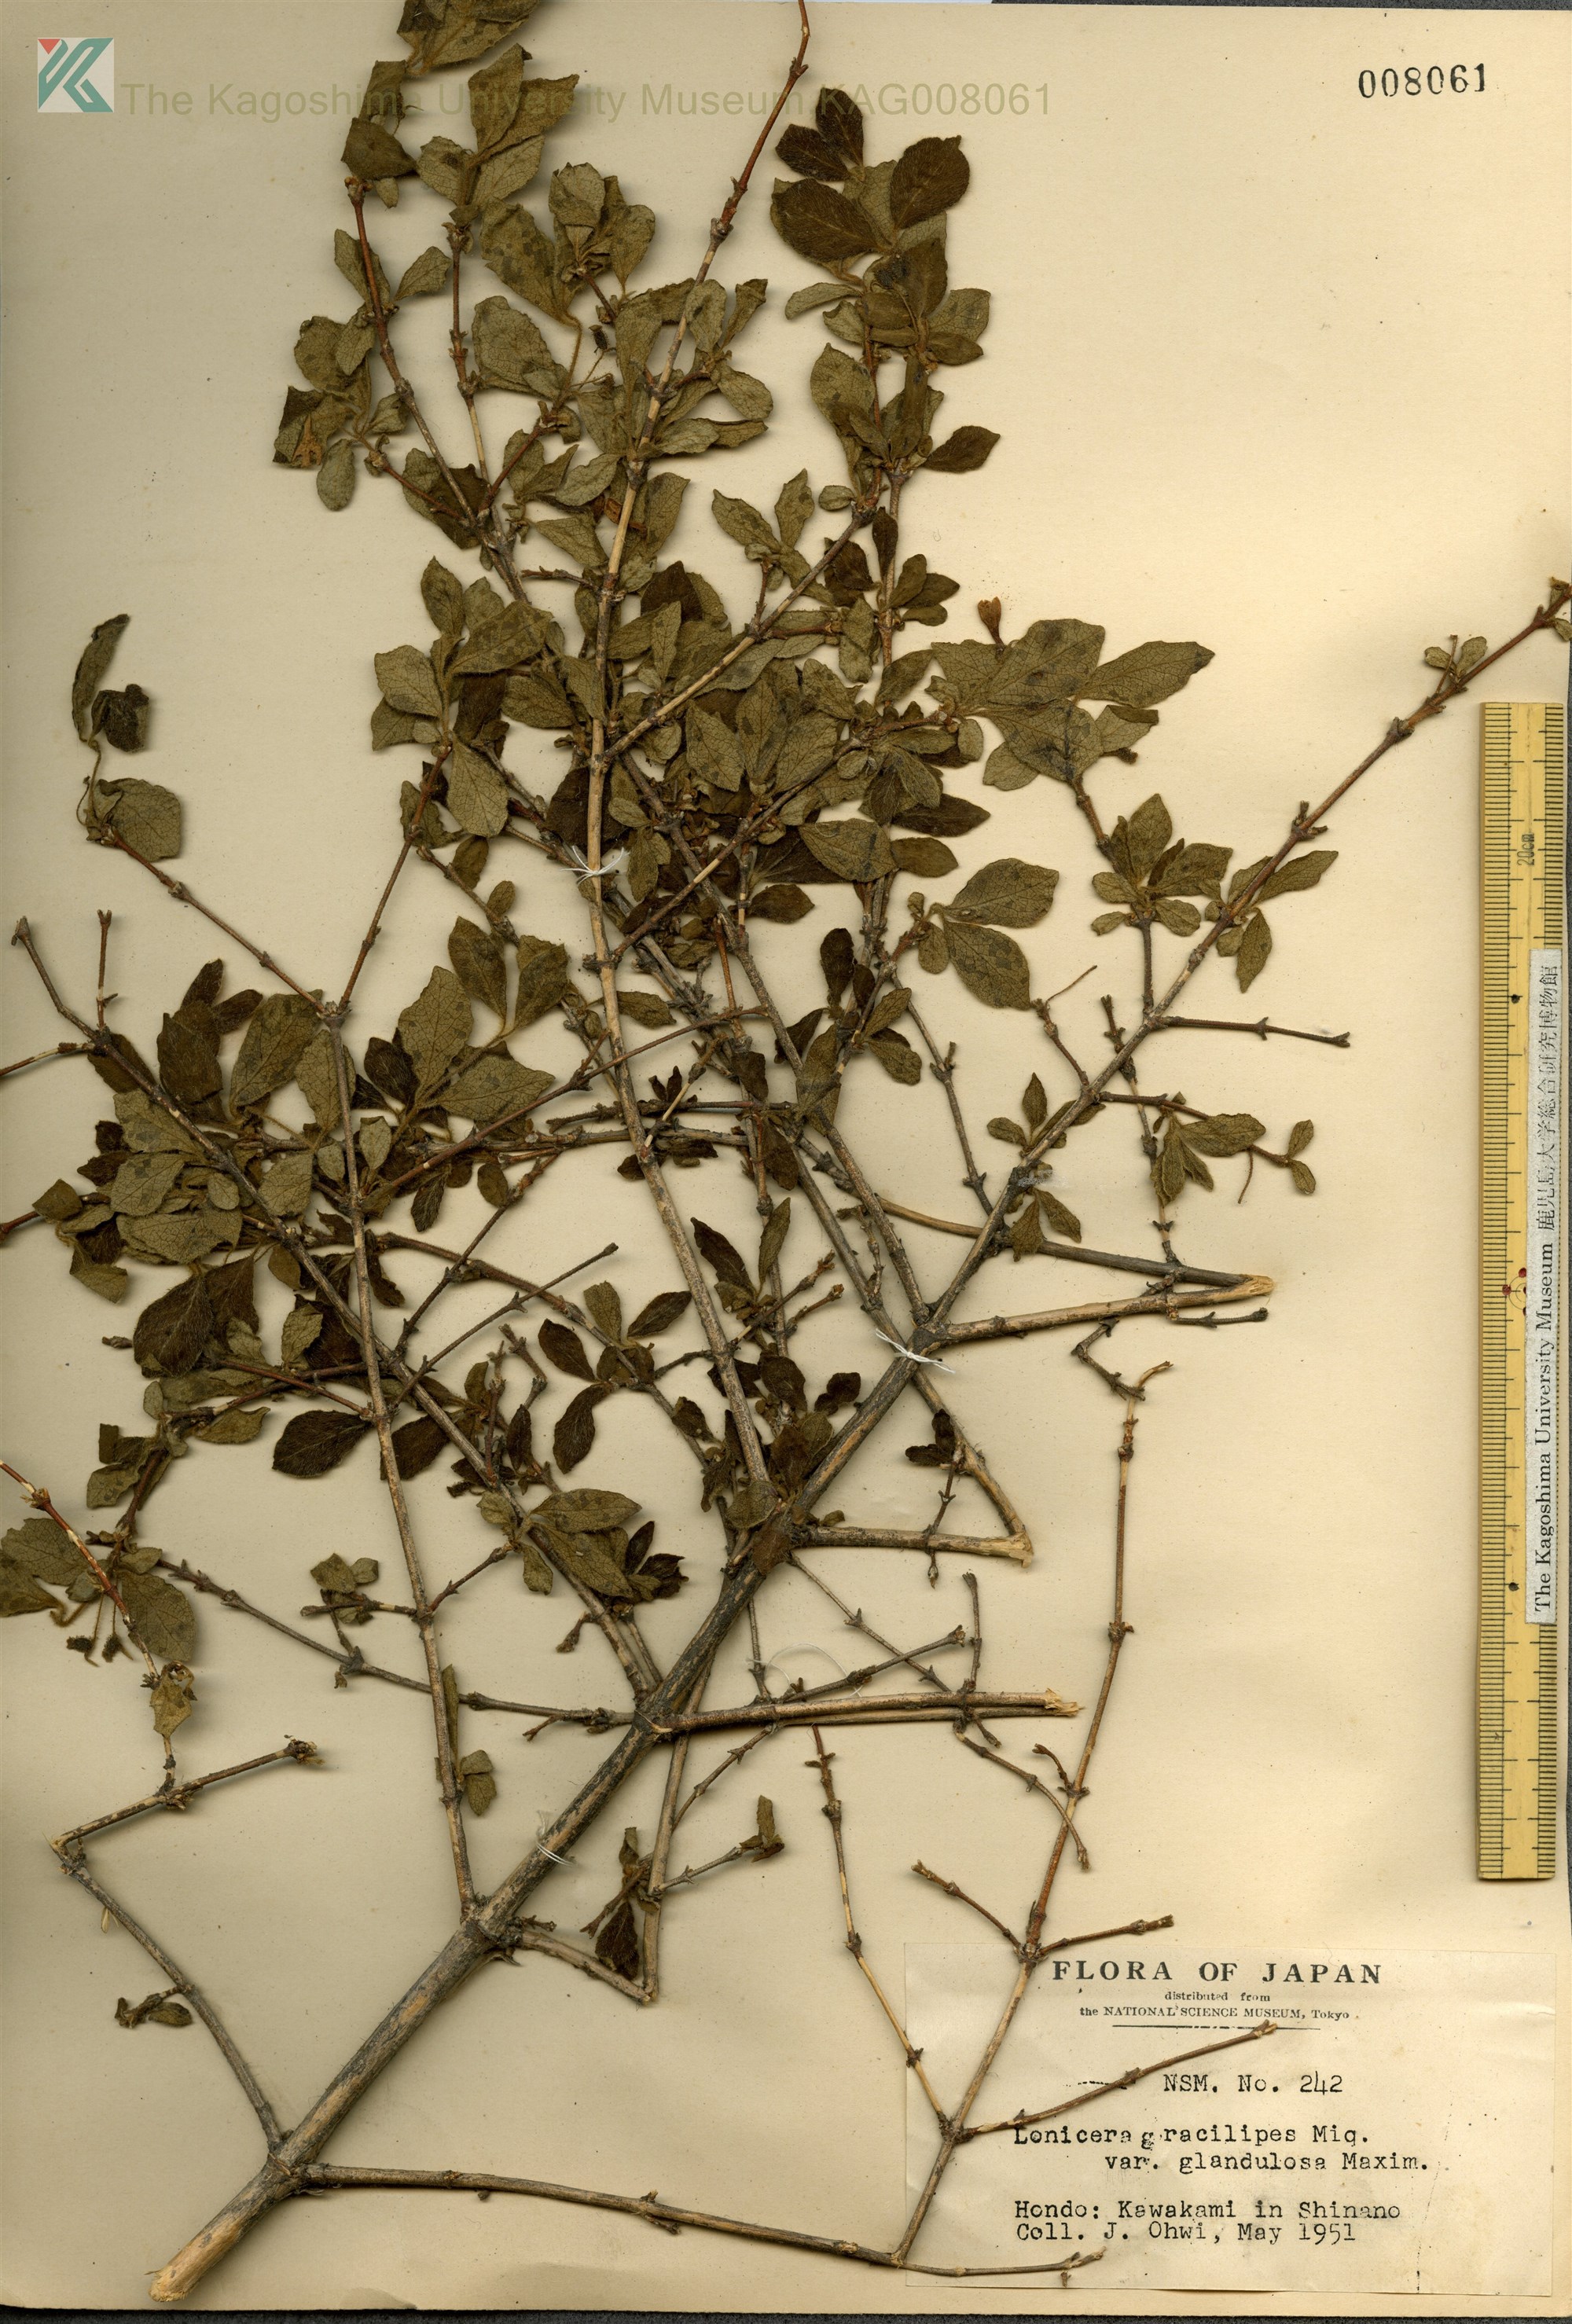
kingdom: Plantae
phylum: Tracheophyta
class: Magnoliopsida
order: Dipsacales
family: Caprifoliaceae
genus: Lonicera
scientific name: Lonicera gracilipes
